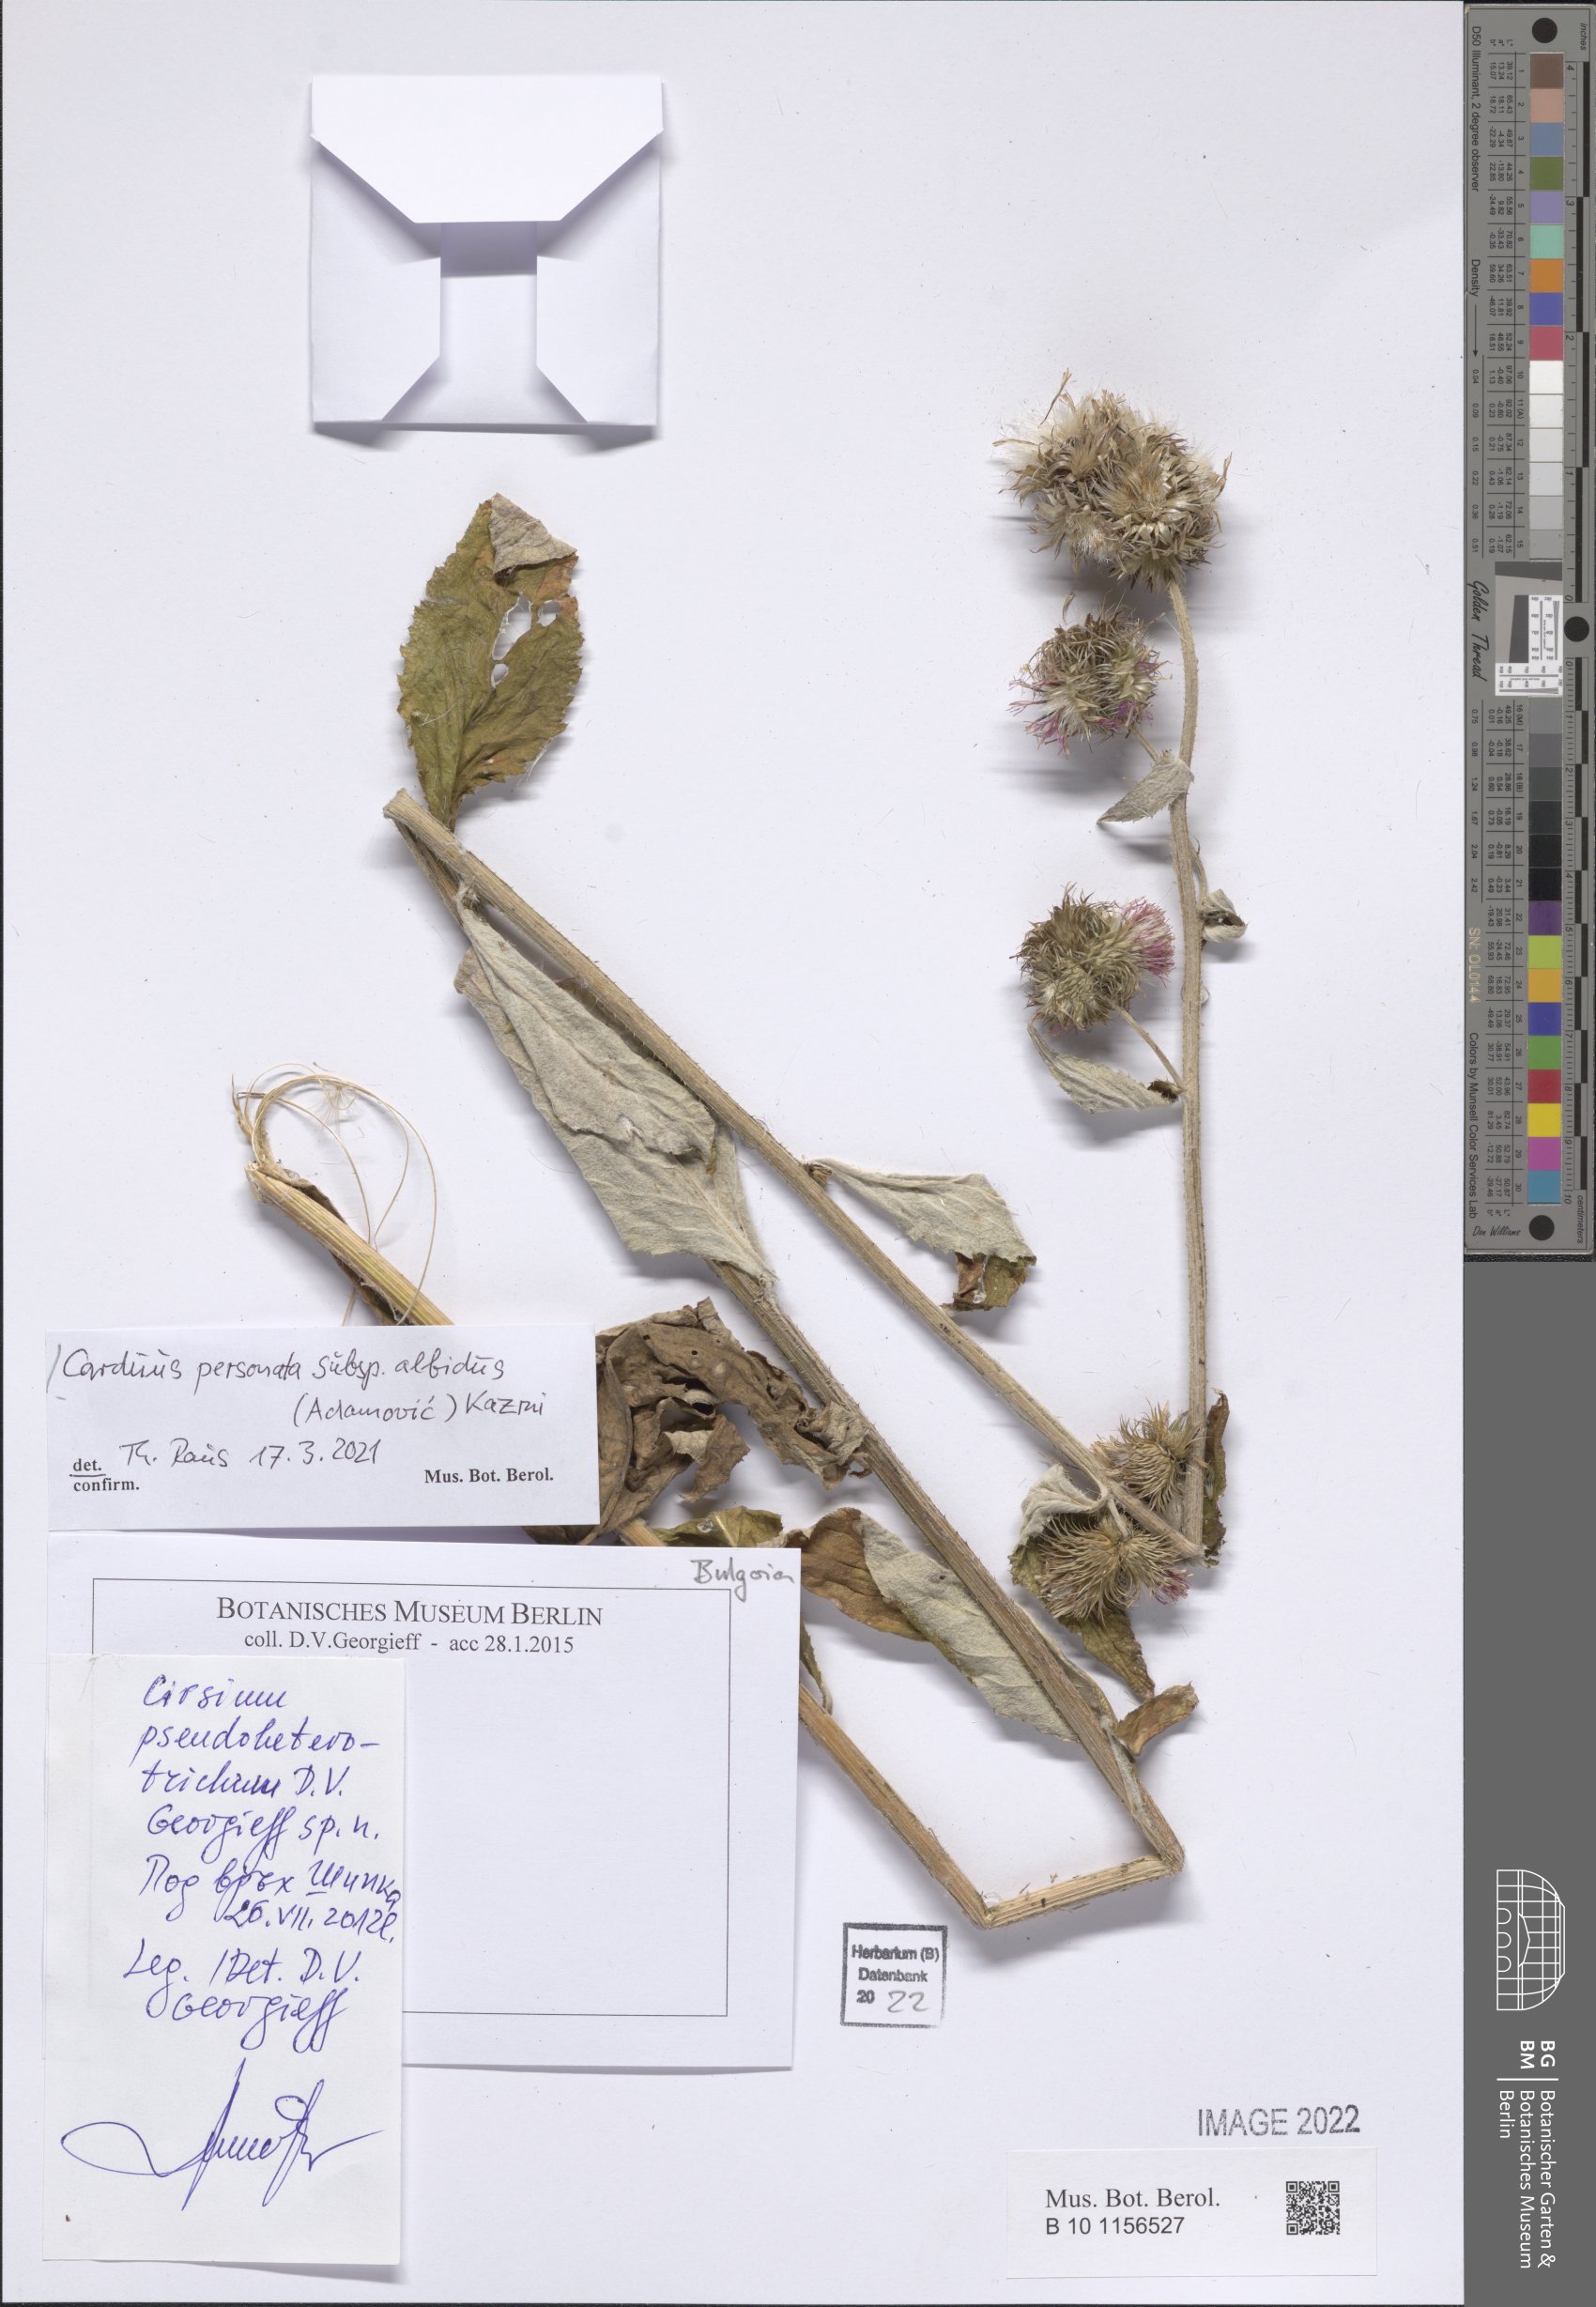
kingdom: Plantae
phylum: Tracheophyta
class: Magnoliopsida
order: Asterales
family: Asteraceae
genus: Carduus
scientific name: Carduus personata
